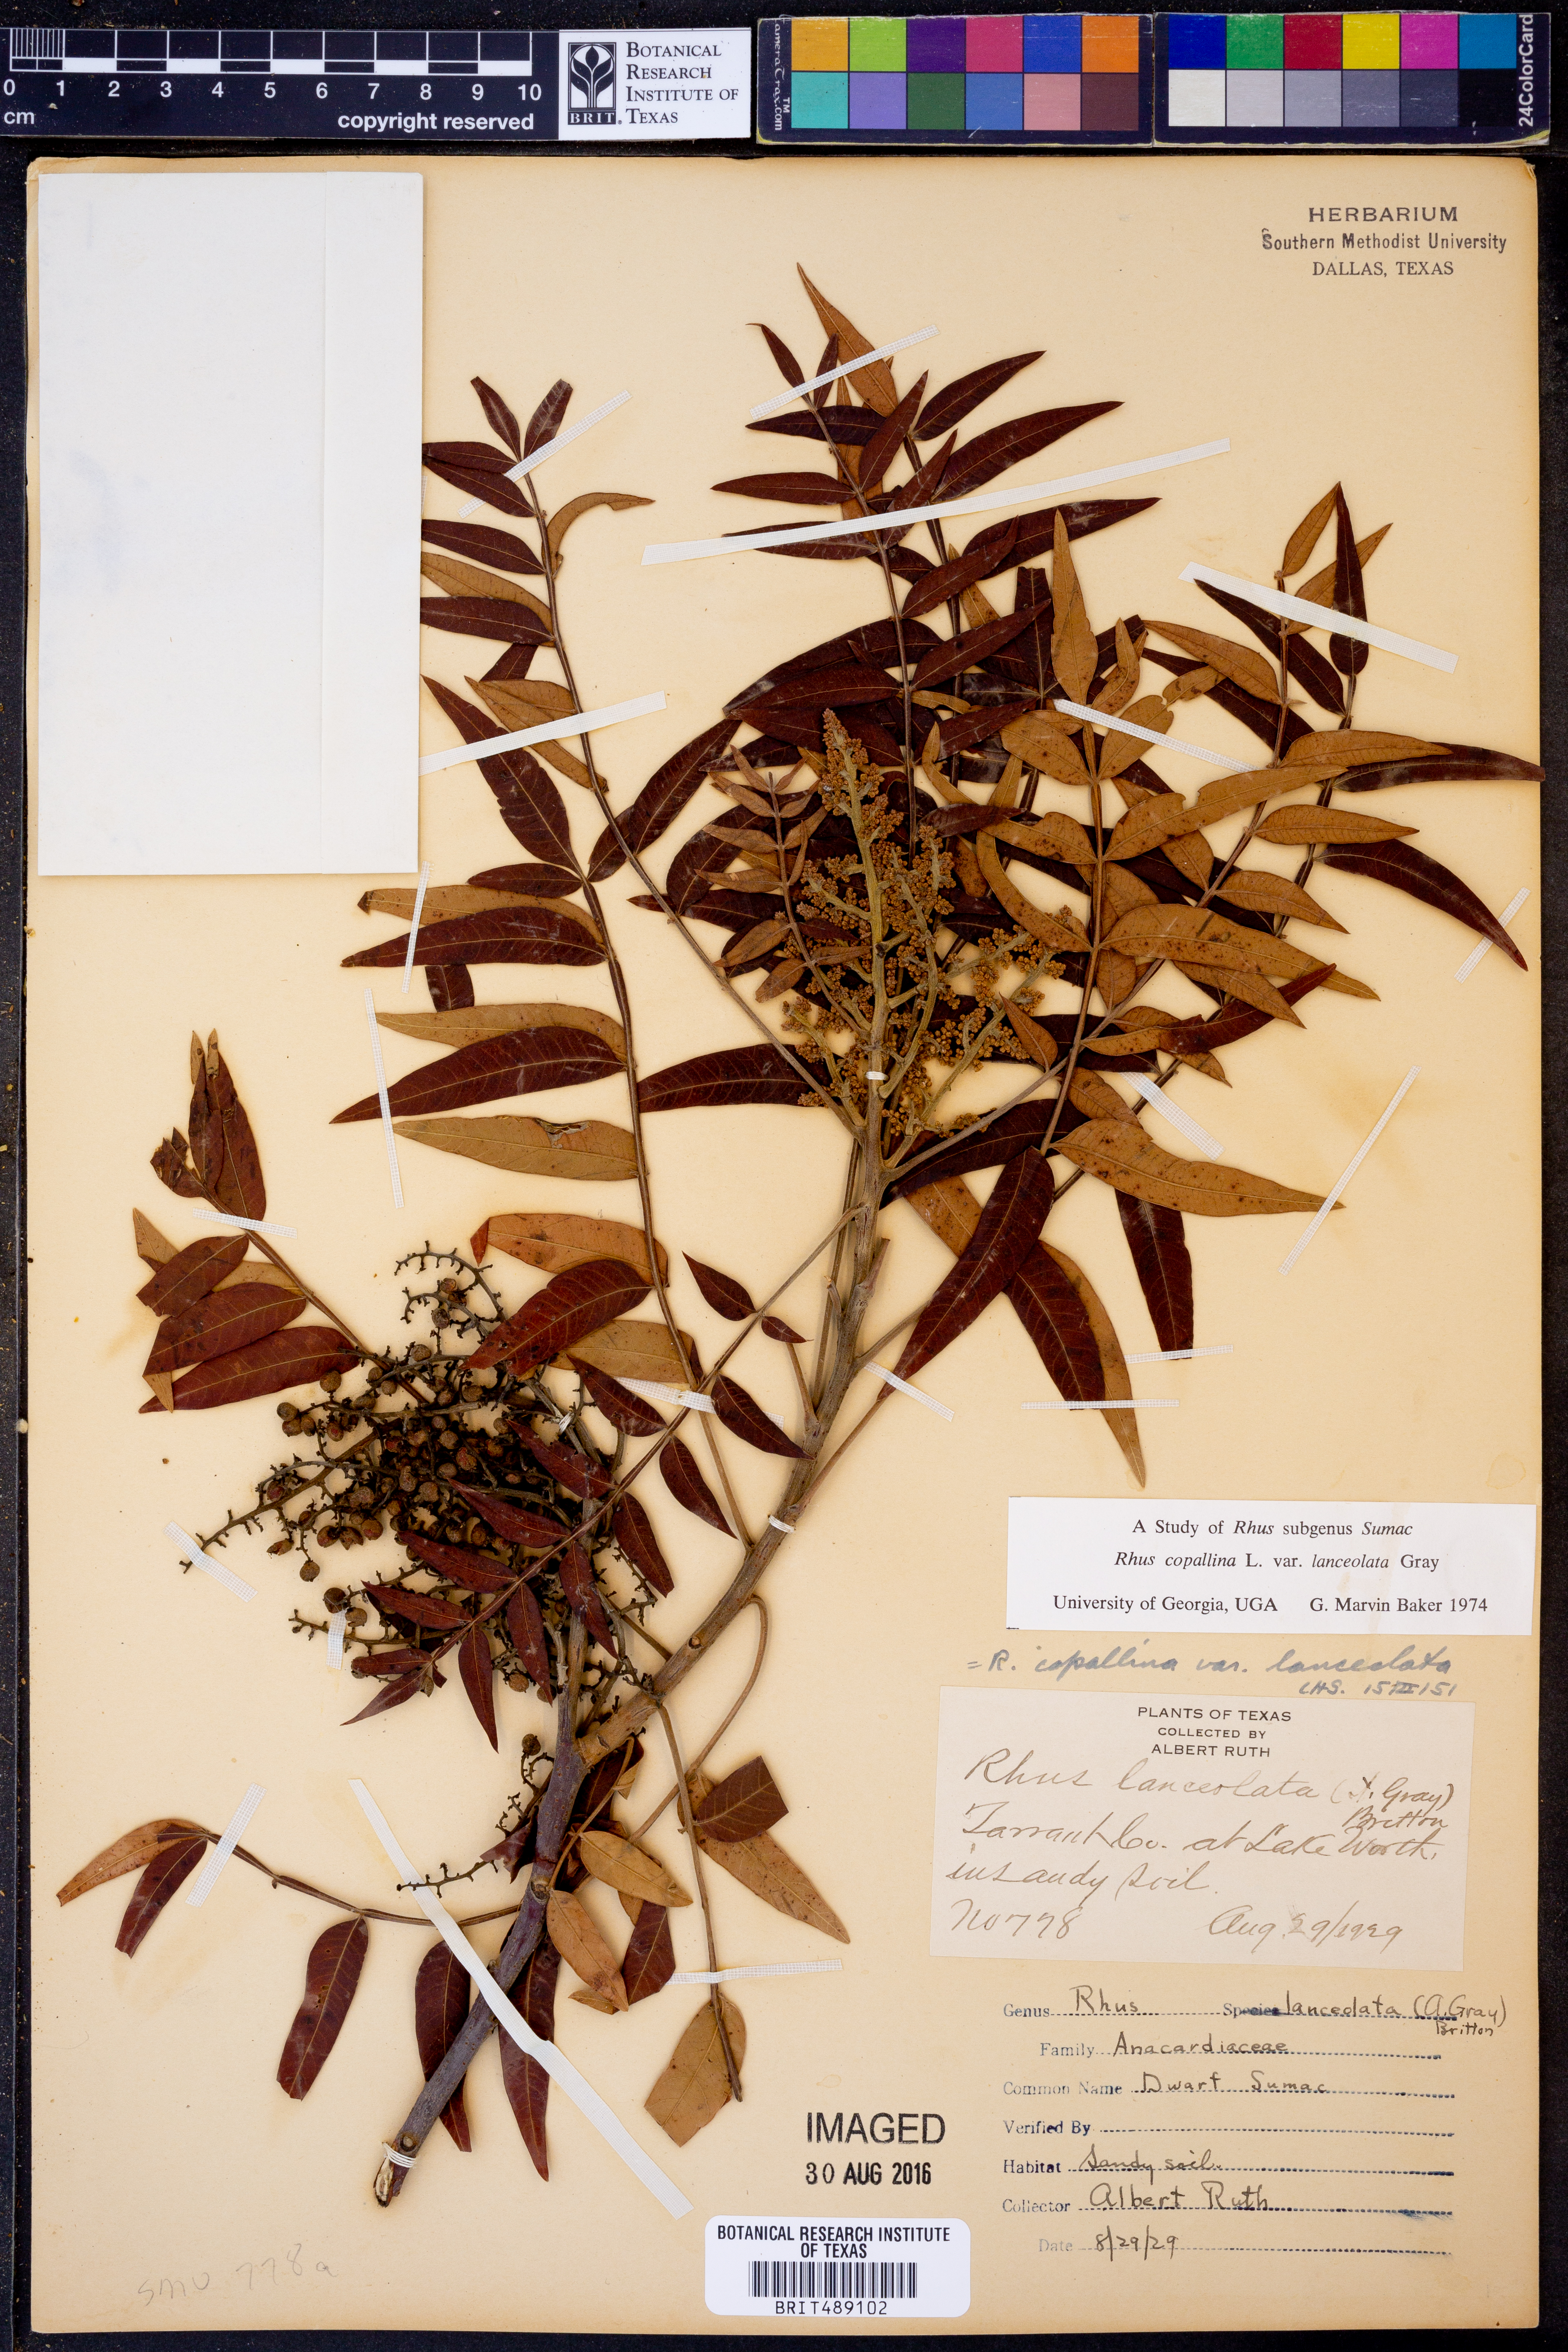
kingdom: Plantae
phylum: Tracheophyta
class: Magnoliopsida
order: Sapindales
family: Anacardiaceae
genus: Rhus
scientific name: Rhus lanceolata
